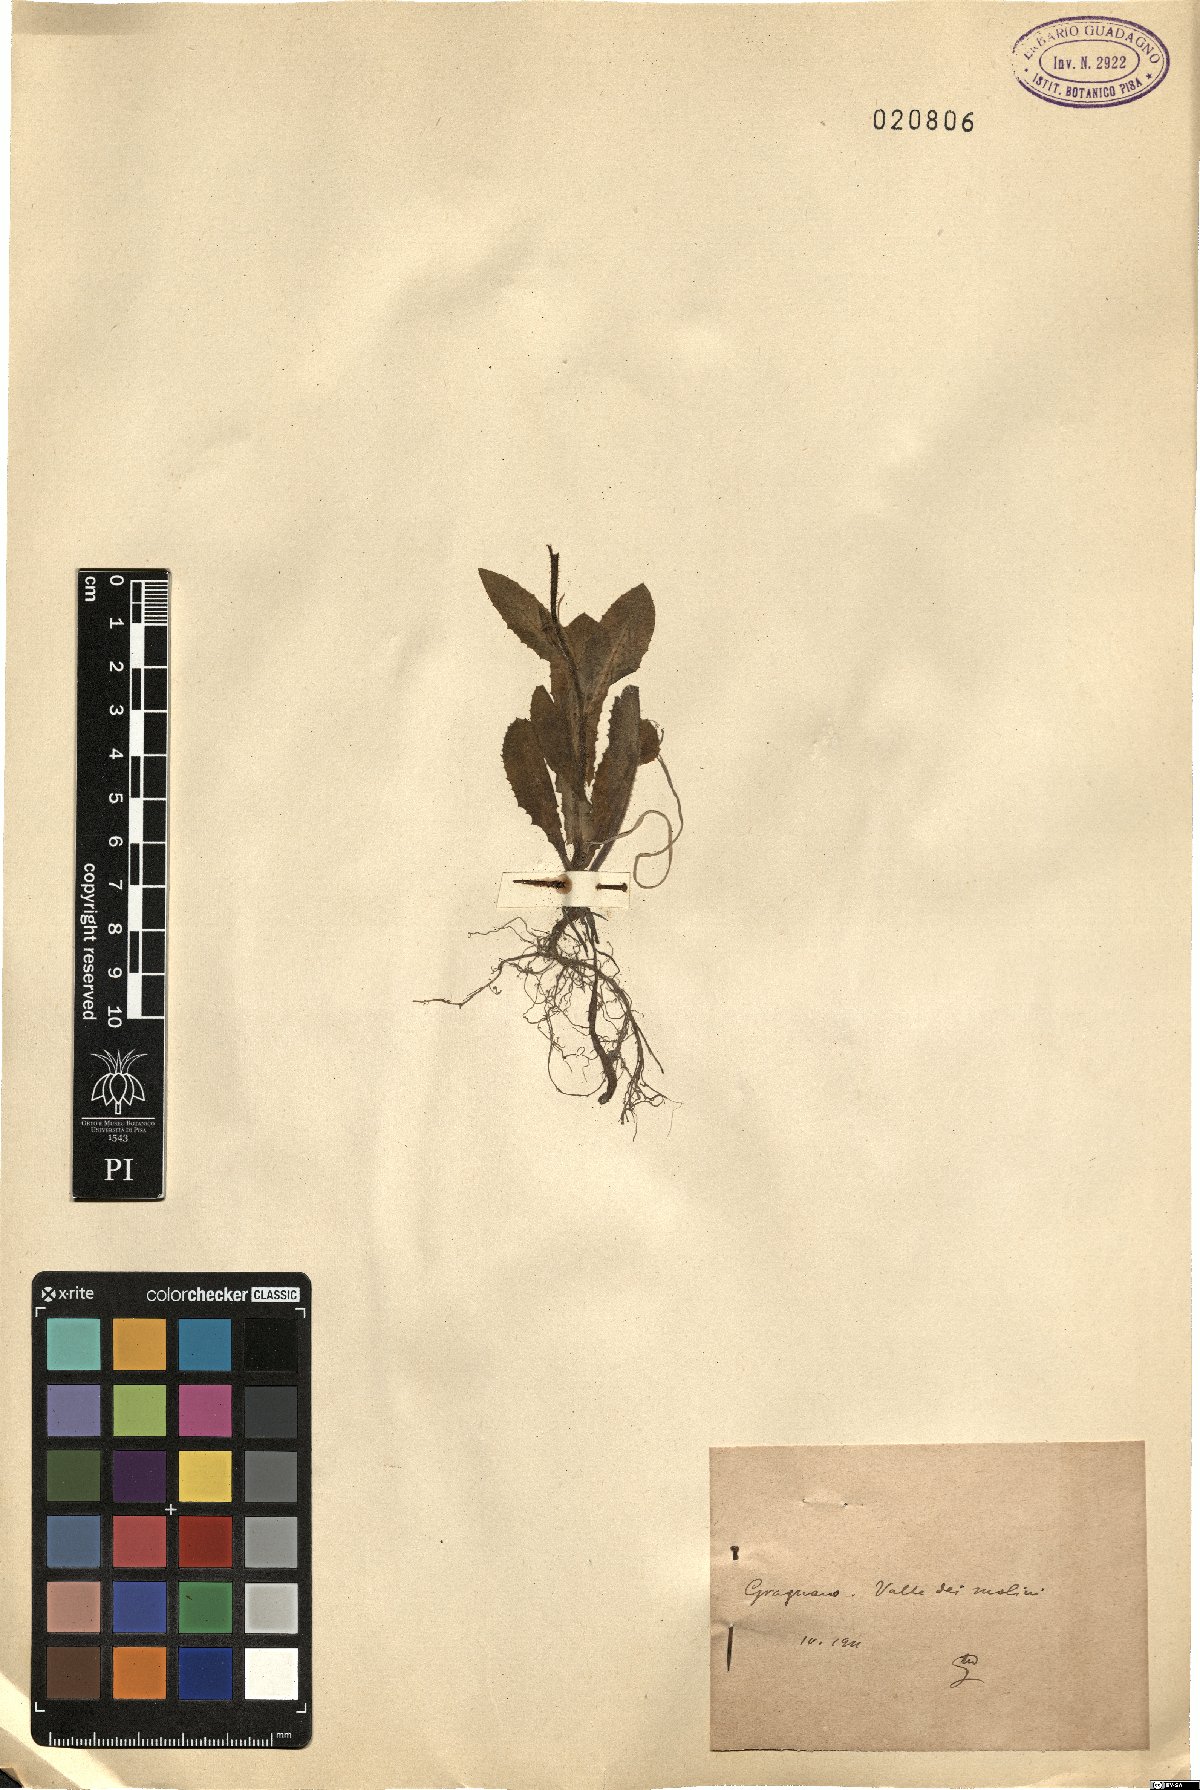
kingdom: Plantae
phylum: Tracheophyta
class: Magnoliopsida
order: Asterales
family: Asteraceae
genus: Urospermum
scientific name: Urospermum
